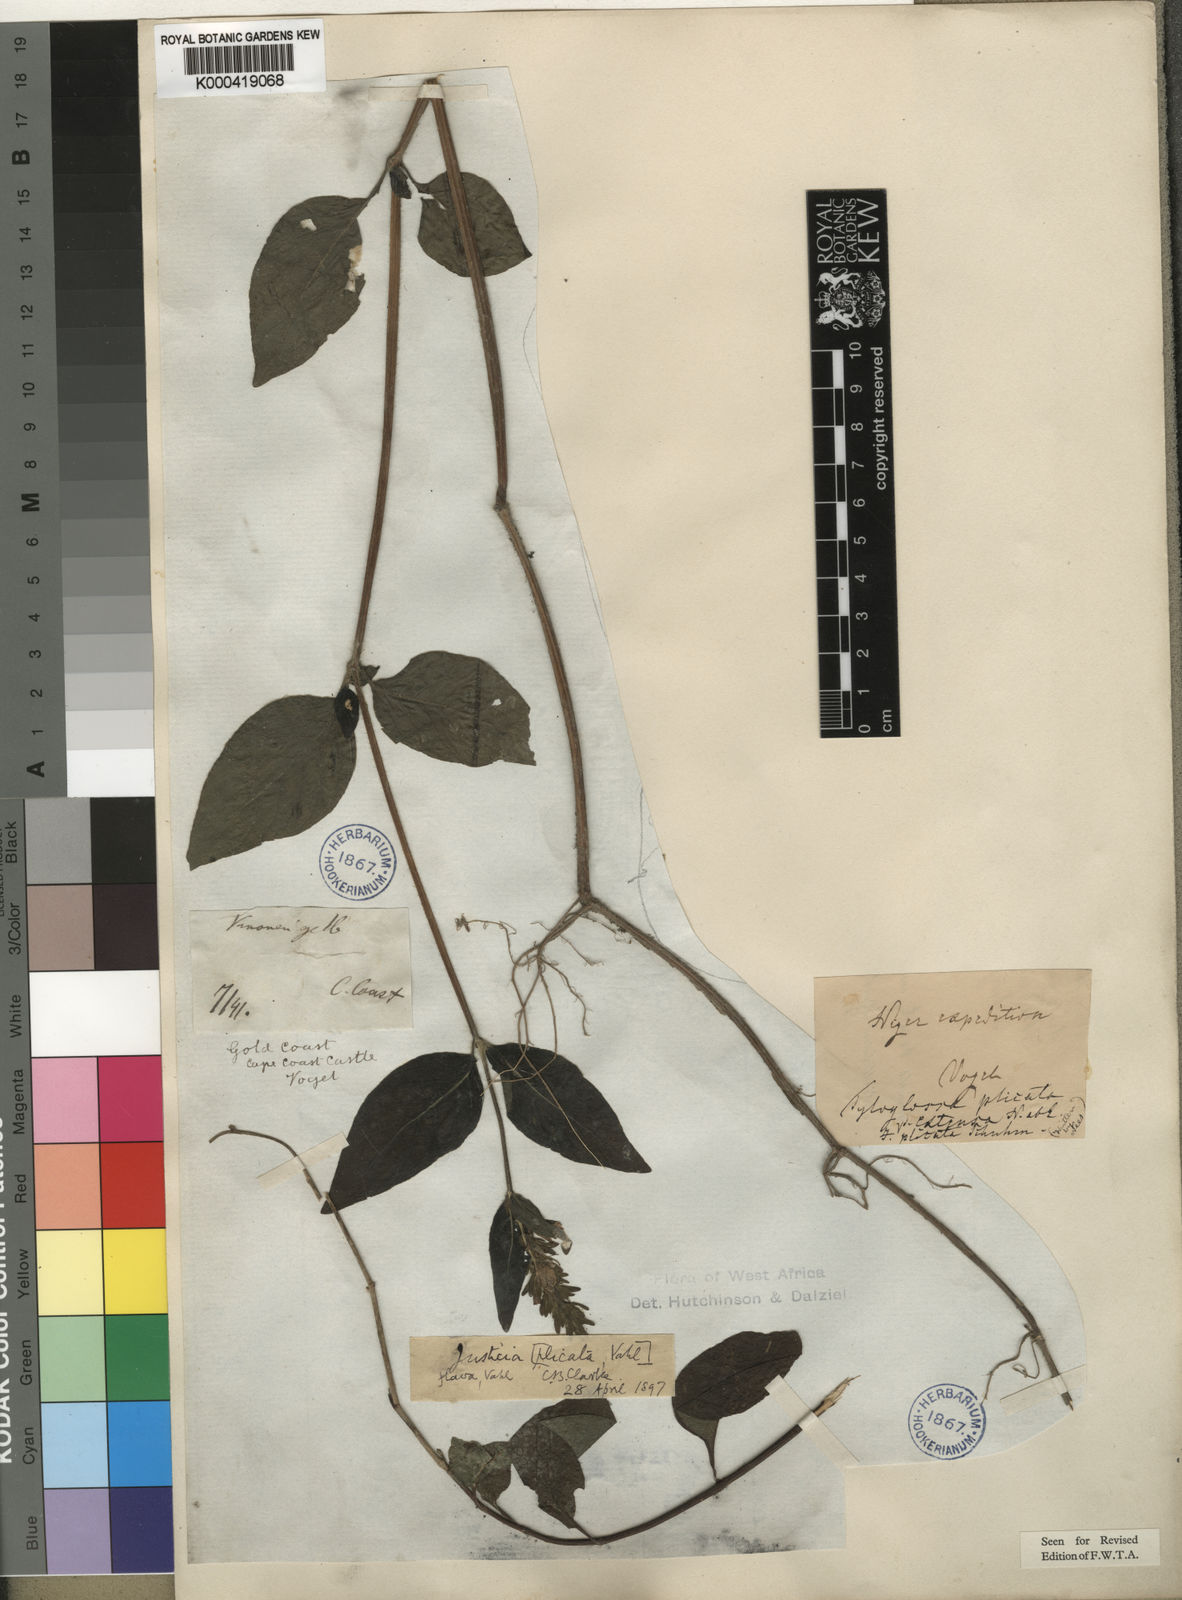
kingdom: Plantae
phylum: Tracheophyta
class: Magnoliopsida
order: Lamiales
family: Acanthaceae
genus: Justicia
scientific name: Justicia flava
